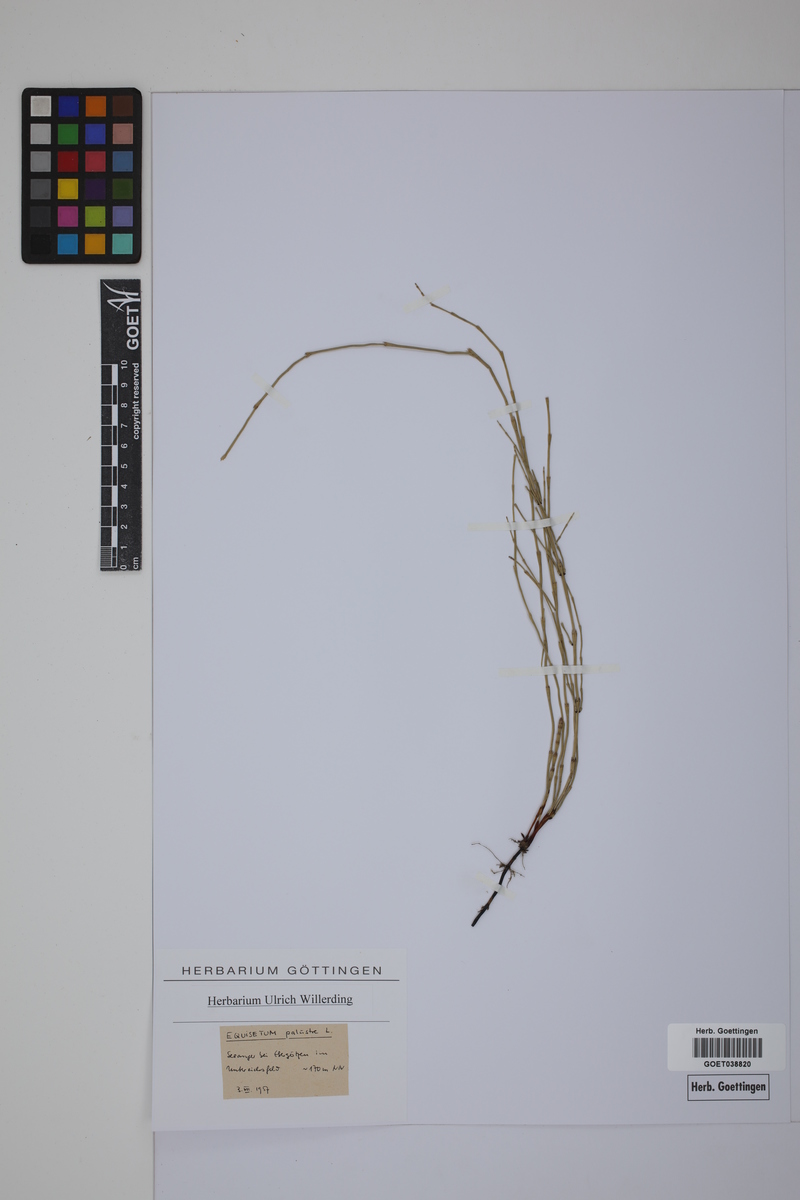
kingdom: Plantae
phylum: Tracheophyta
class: Polypodiopsida
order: Equisetales
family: Equisetaceae
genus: Equisetum
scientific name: Equisetum palustre
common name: Marsh horsetail
